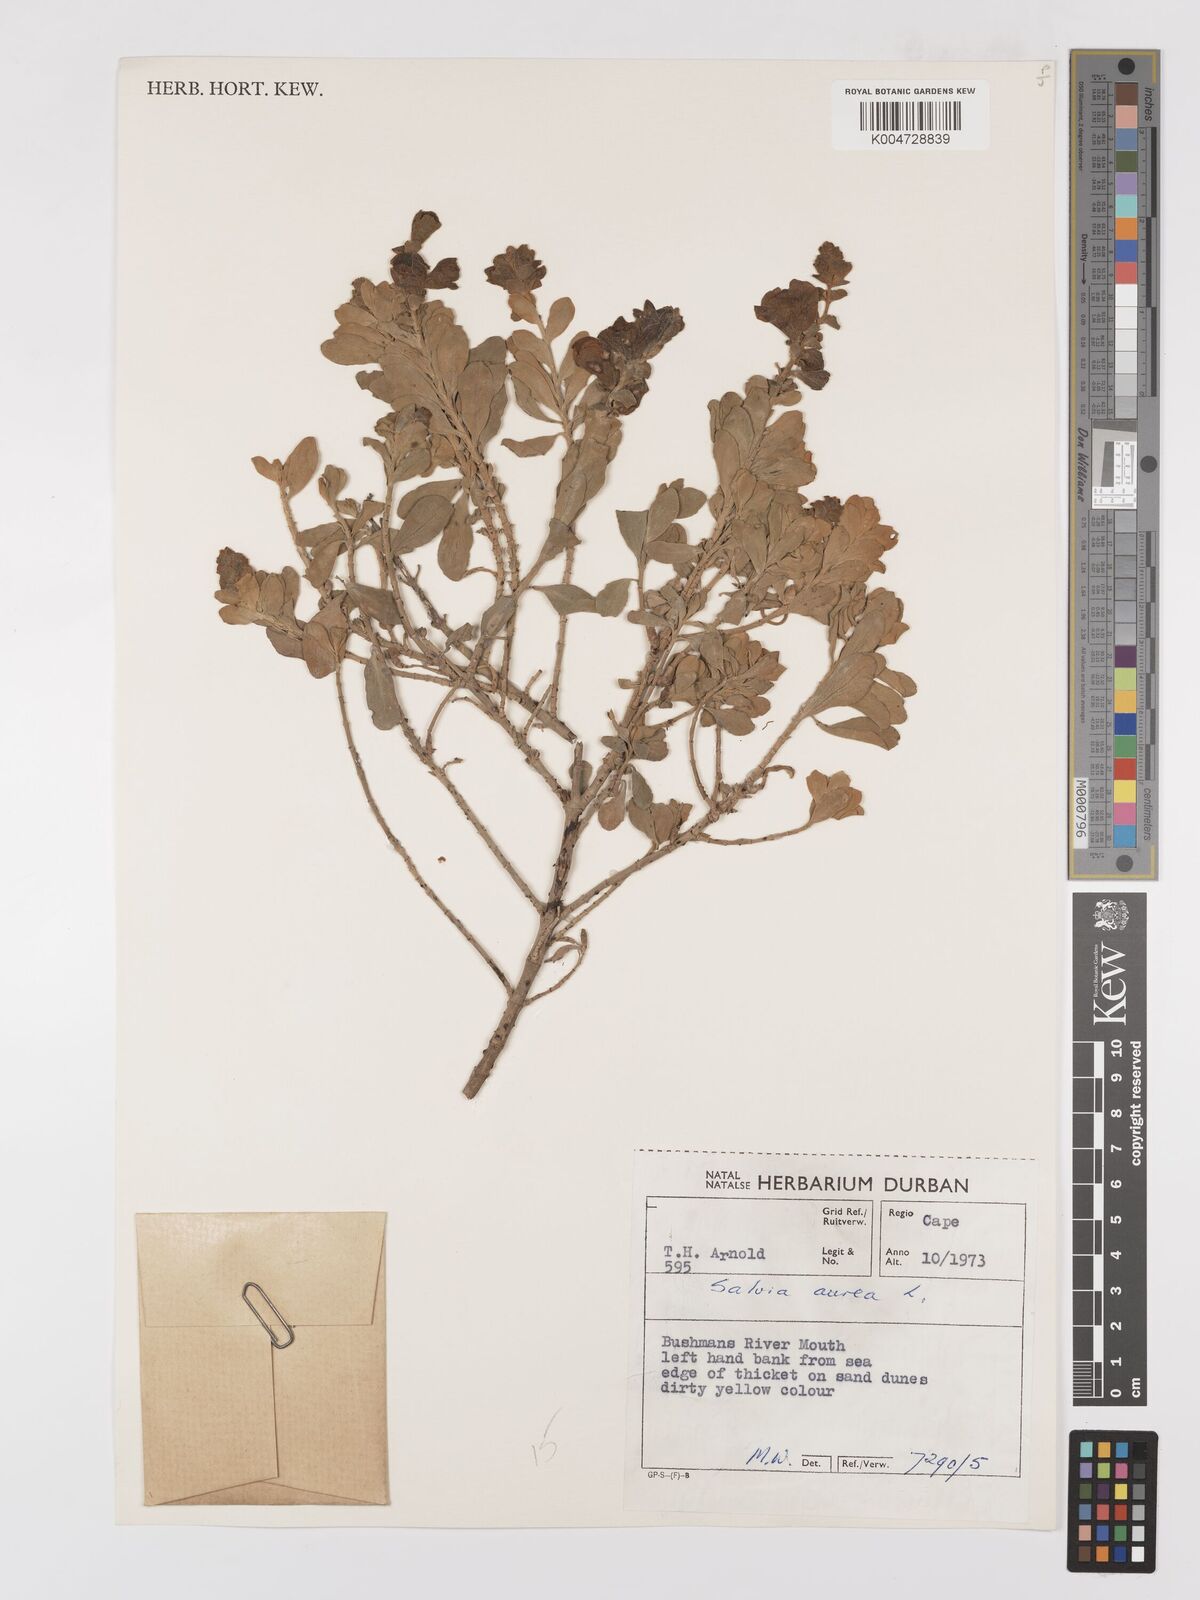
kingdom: Plantae
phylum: Tracheophyta
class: Magnoliopsida
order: Lamiales
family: Lamiaceae
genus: Salvia
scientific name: Salvia aurea
